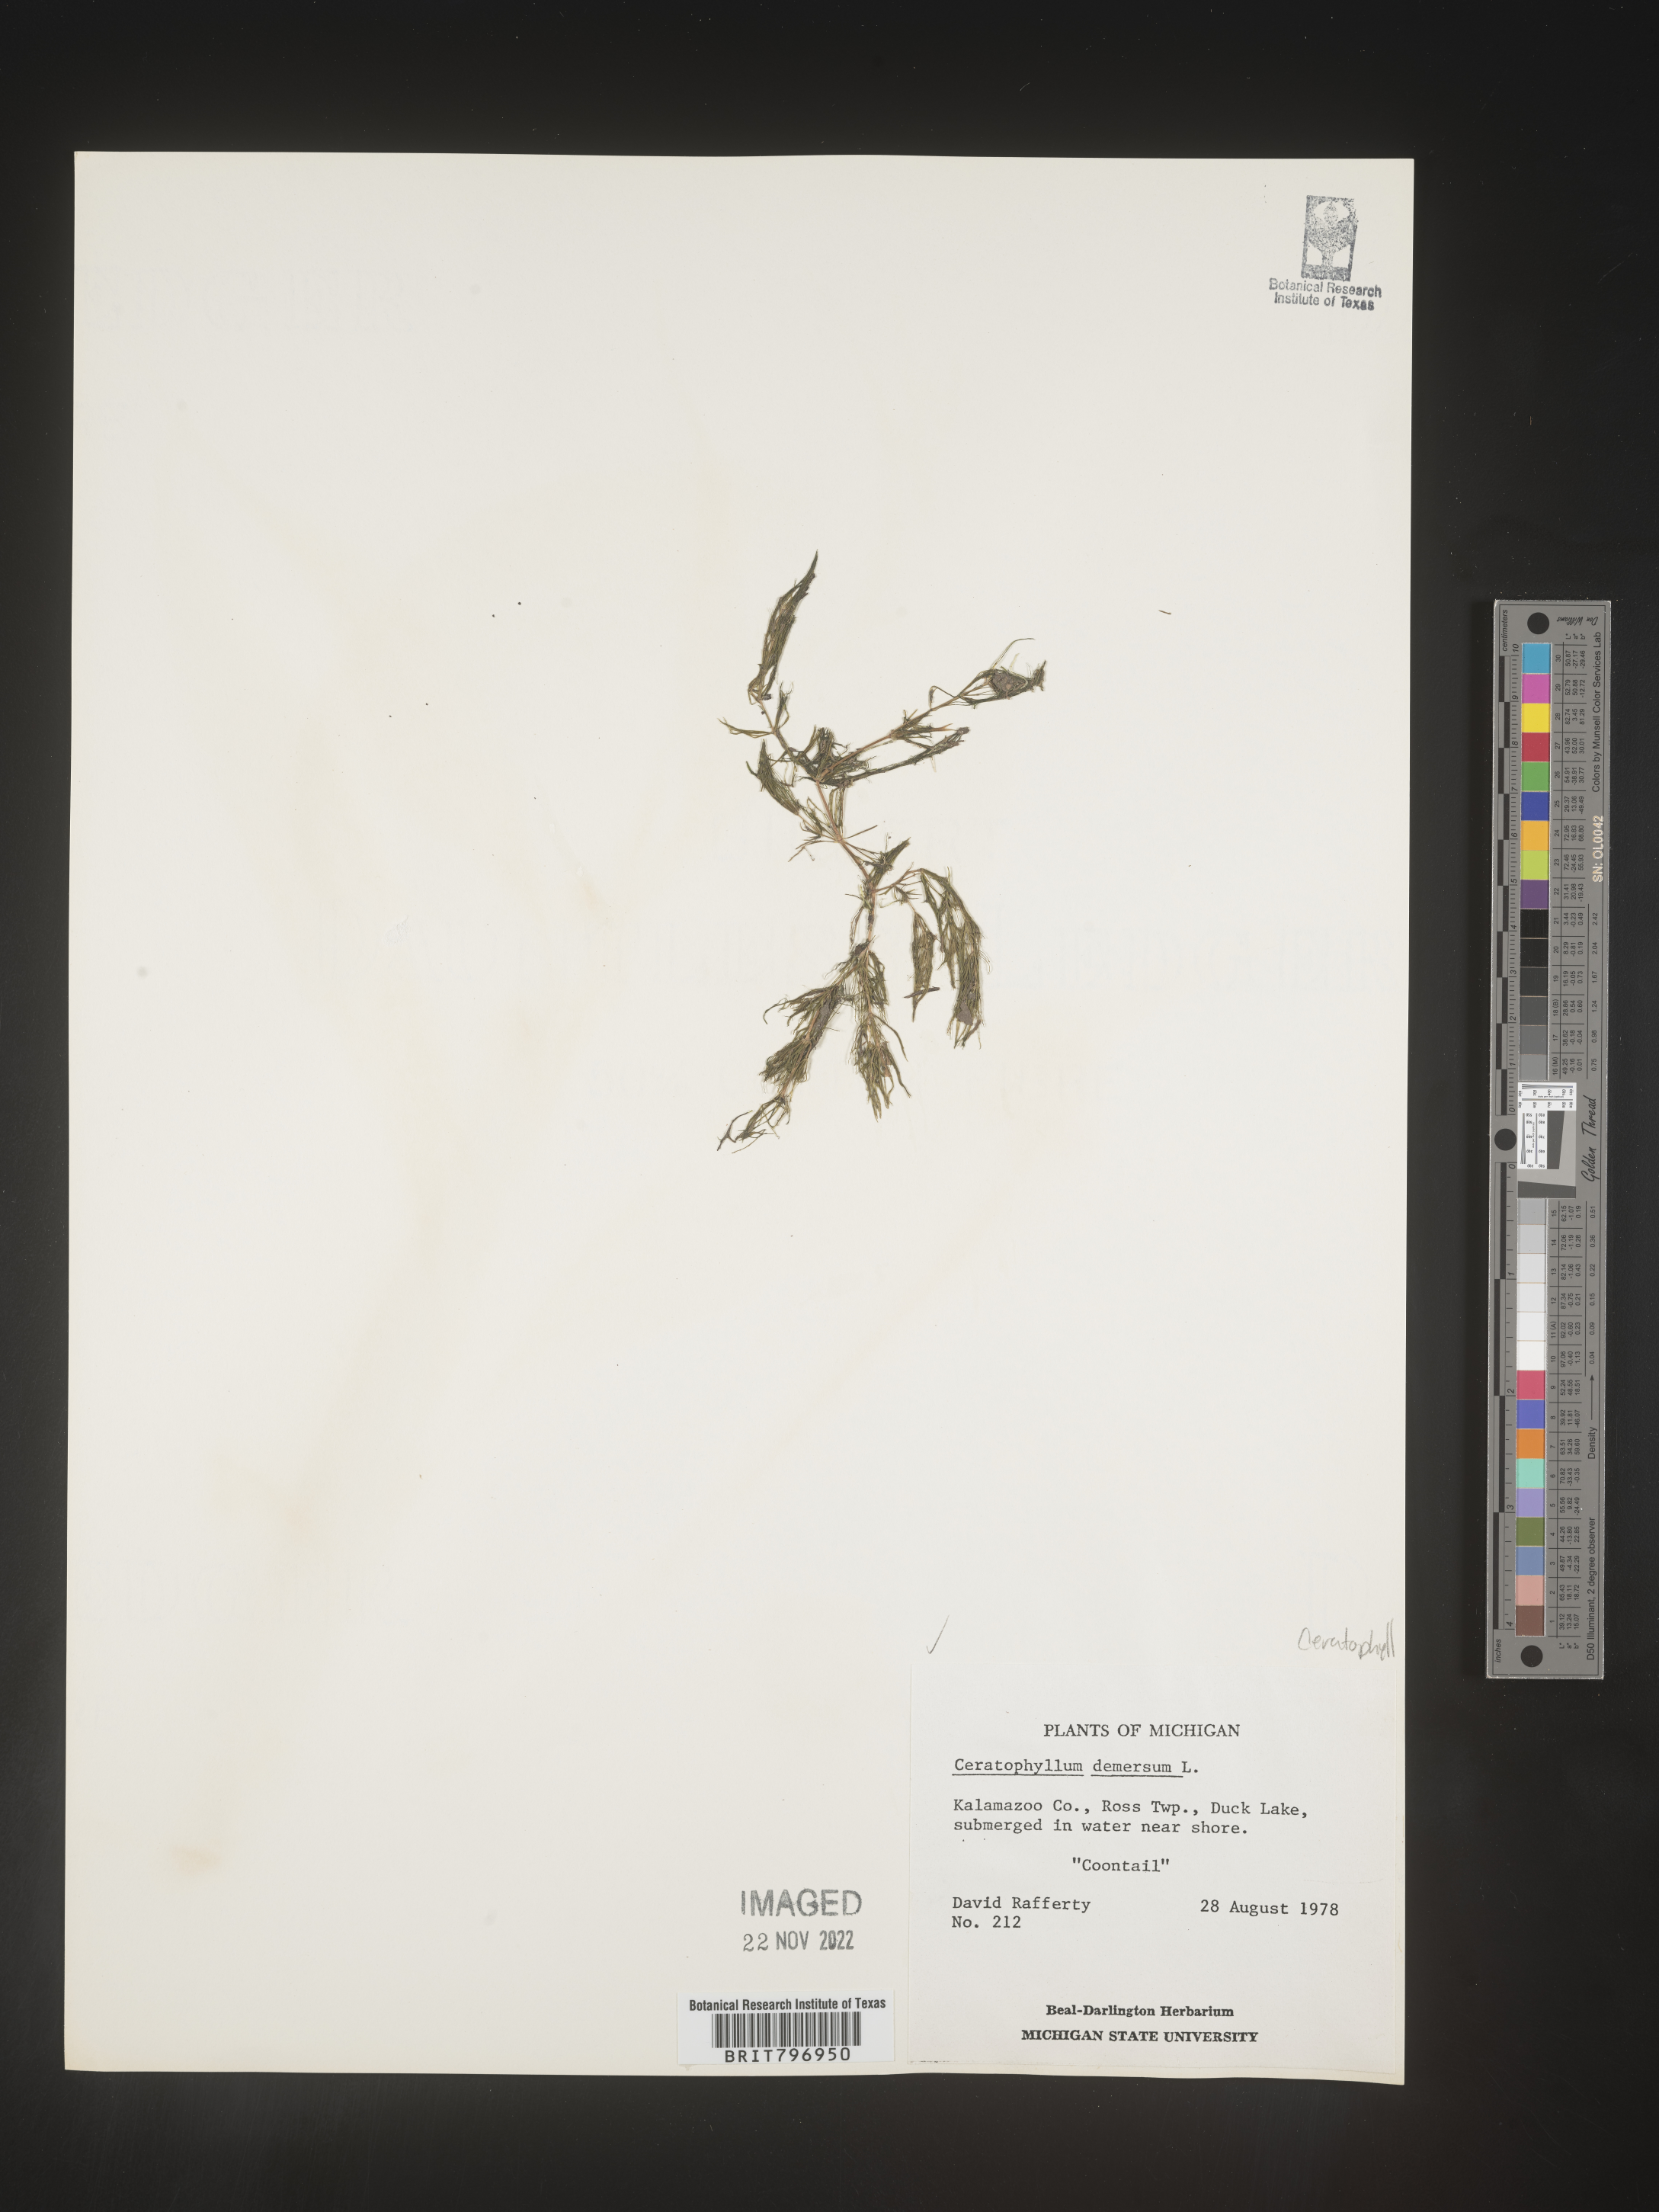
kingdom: Plantae
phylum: Tracheophyta
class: Magnoliopsida
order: Ceratophyllales
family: Ceratophyllaceae
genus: Ceratophyllum
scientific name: Ceratophyllum demersum
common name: Rigid hornwort
